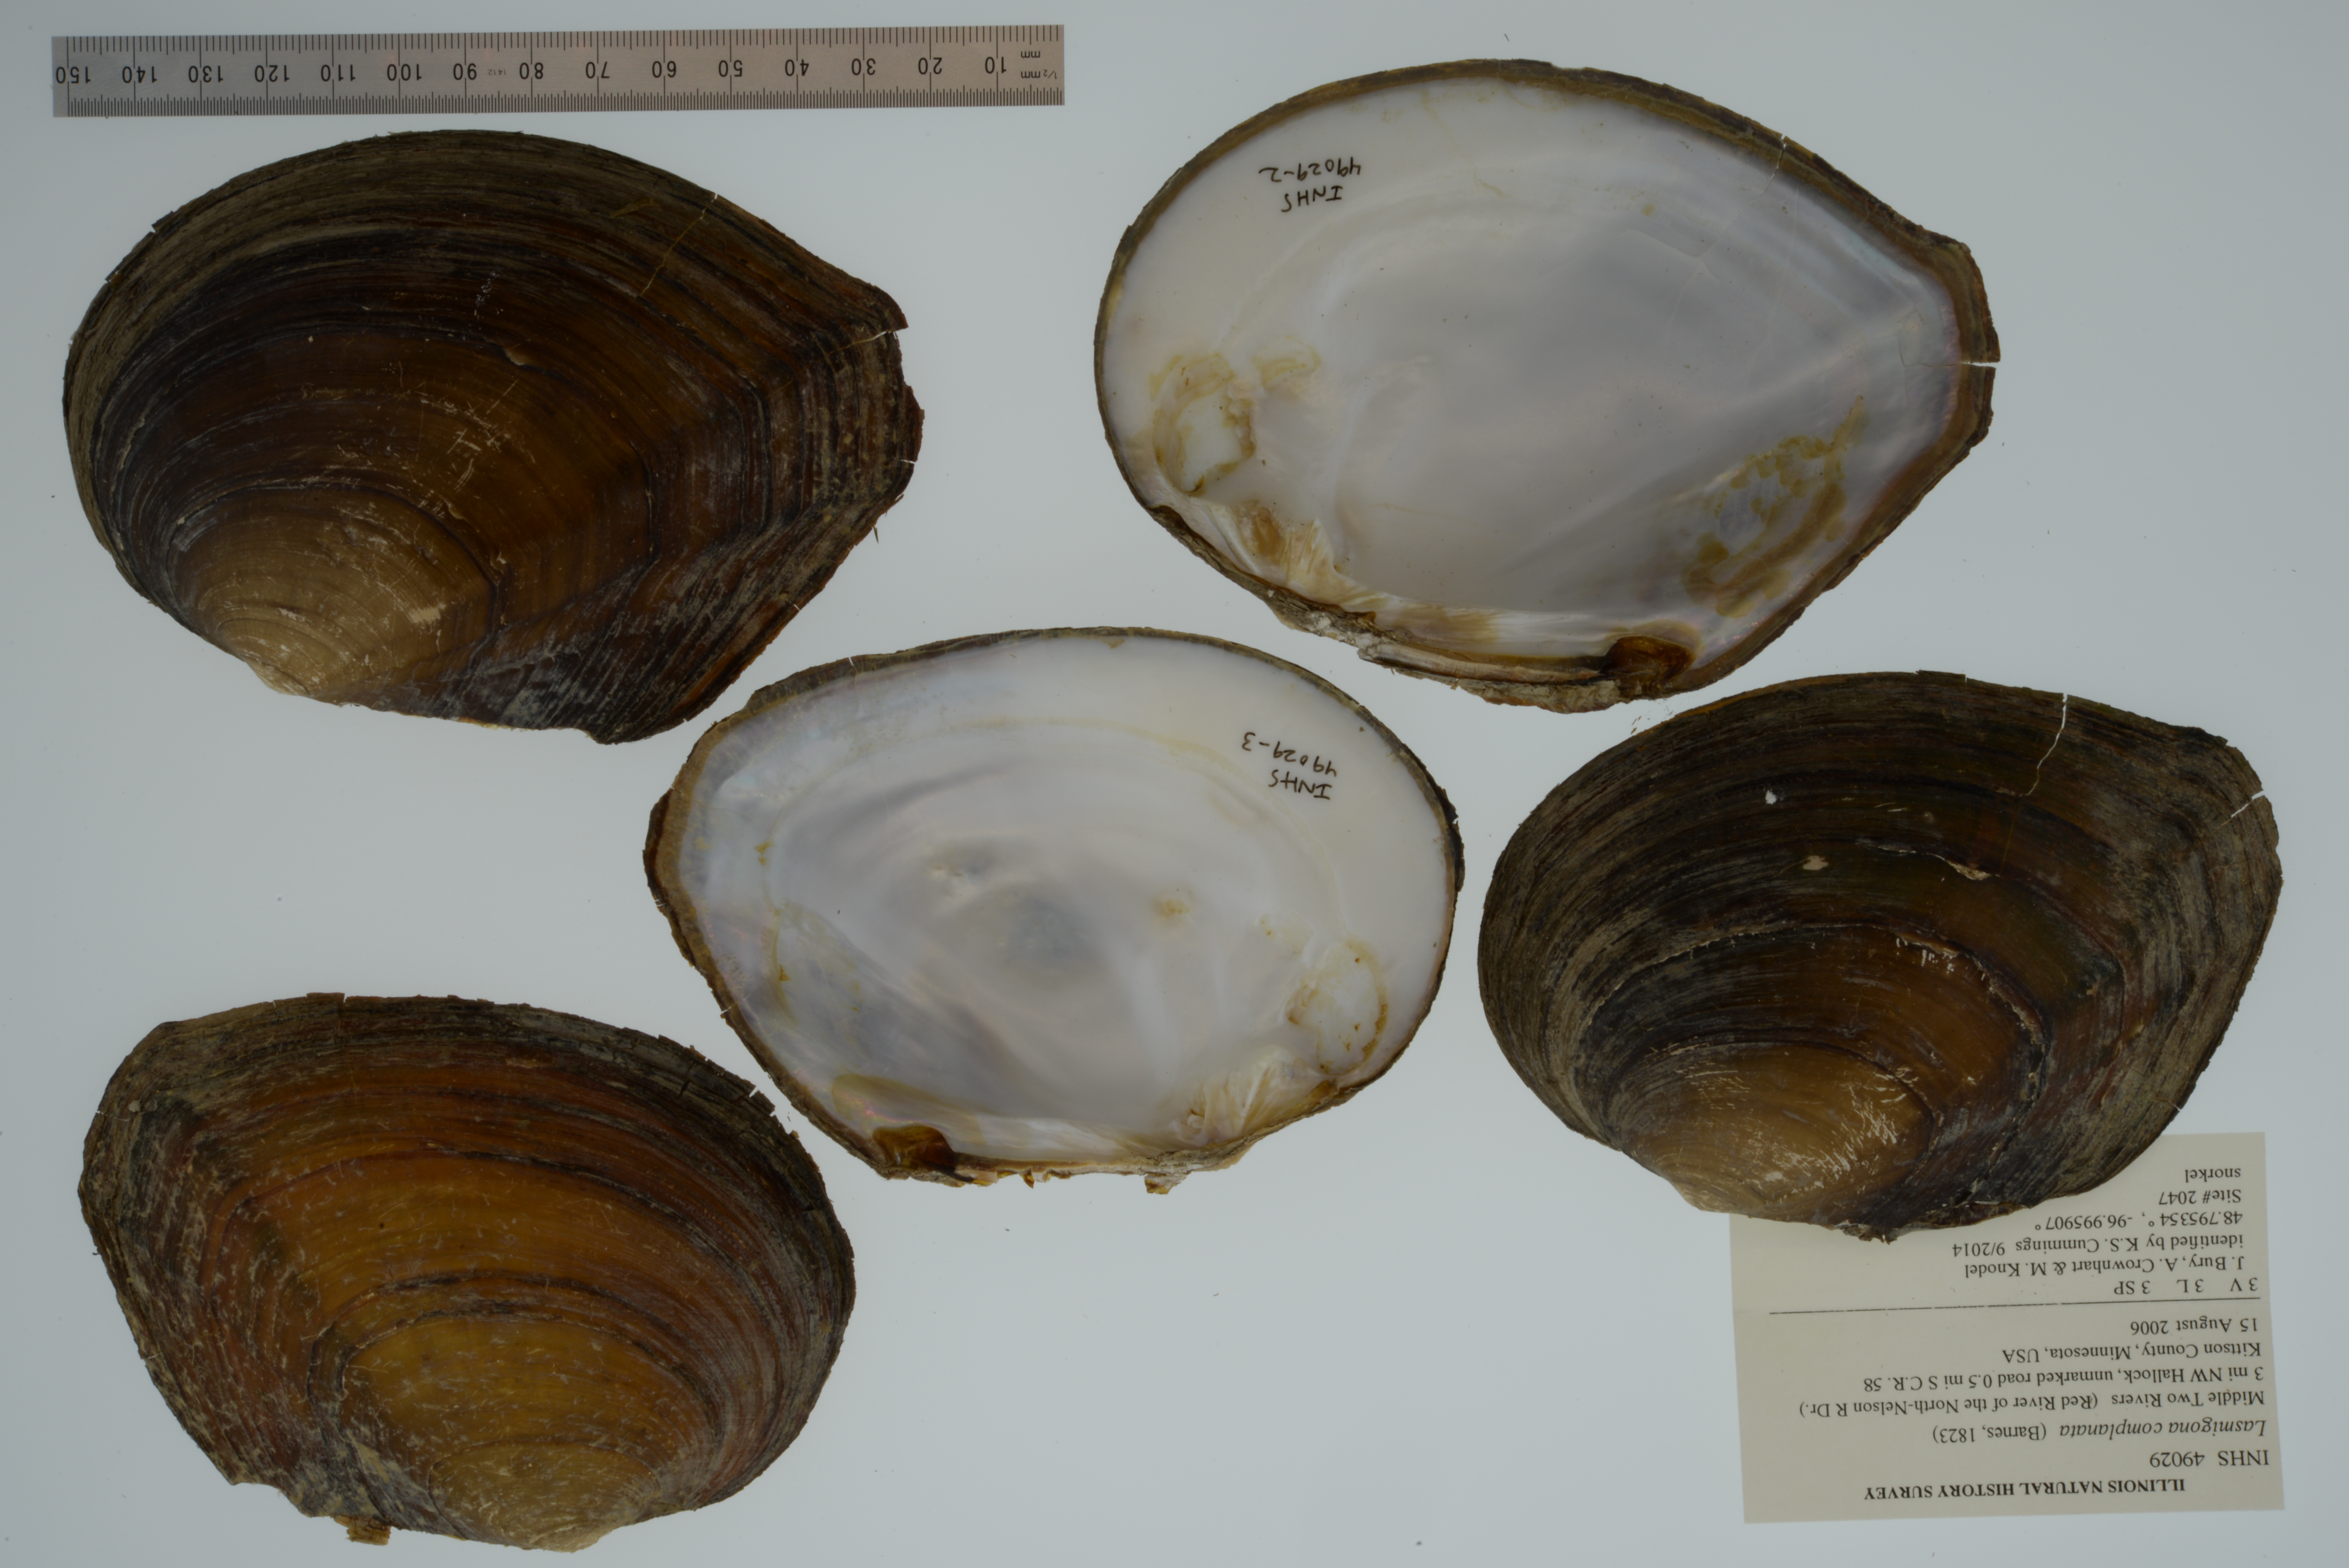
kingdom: Animalia
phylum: Mollusca
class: Bivalvia
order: Unionida
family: Unionidae
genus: Lasmigona
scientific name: Lasmigona complanata
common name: White heelsplitter
